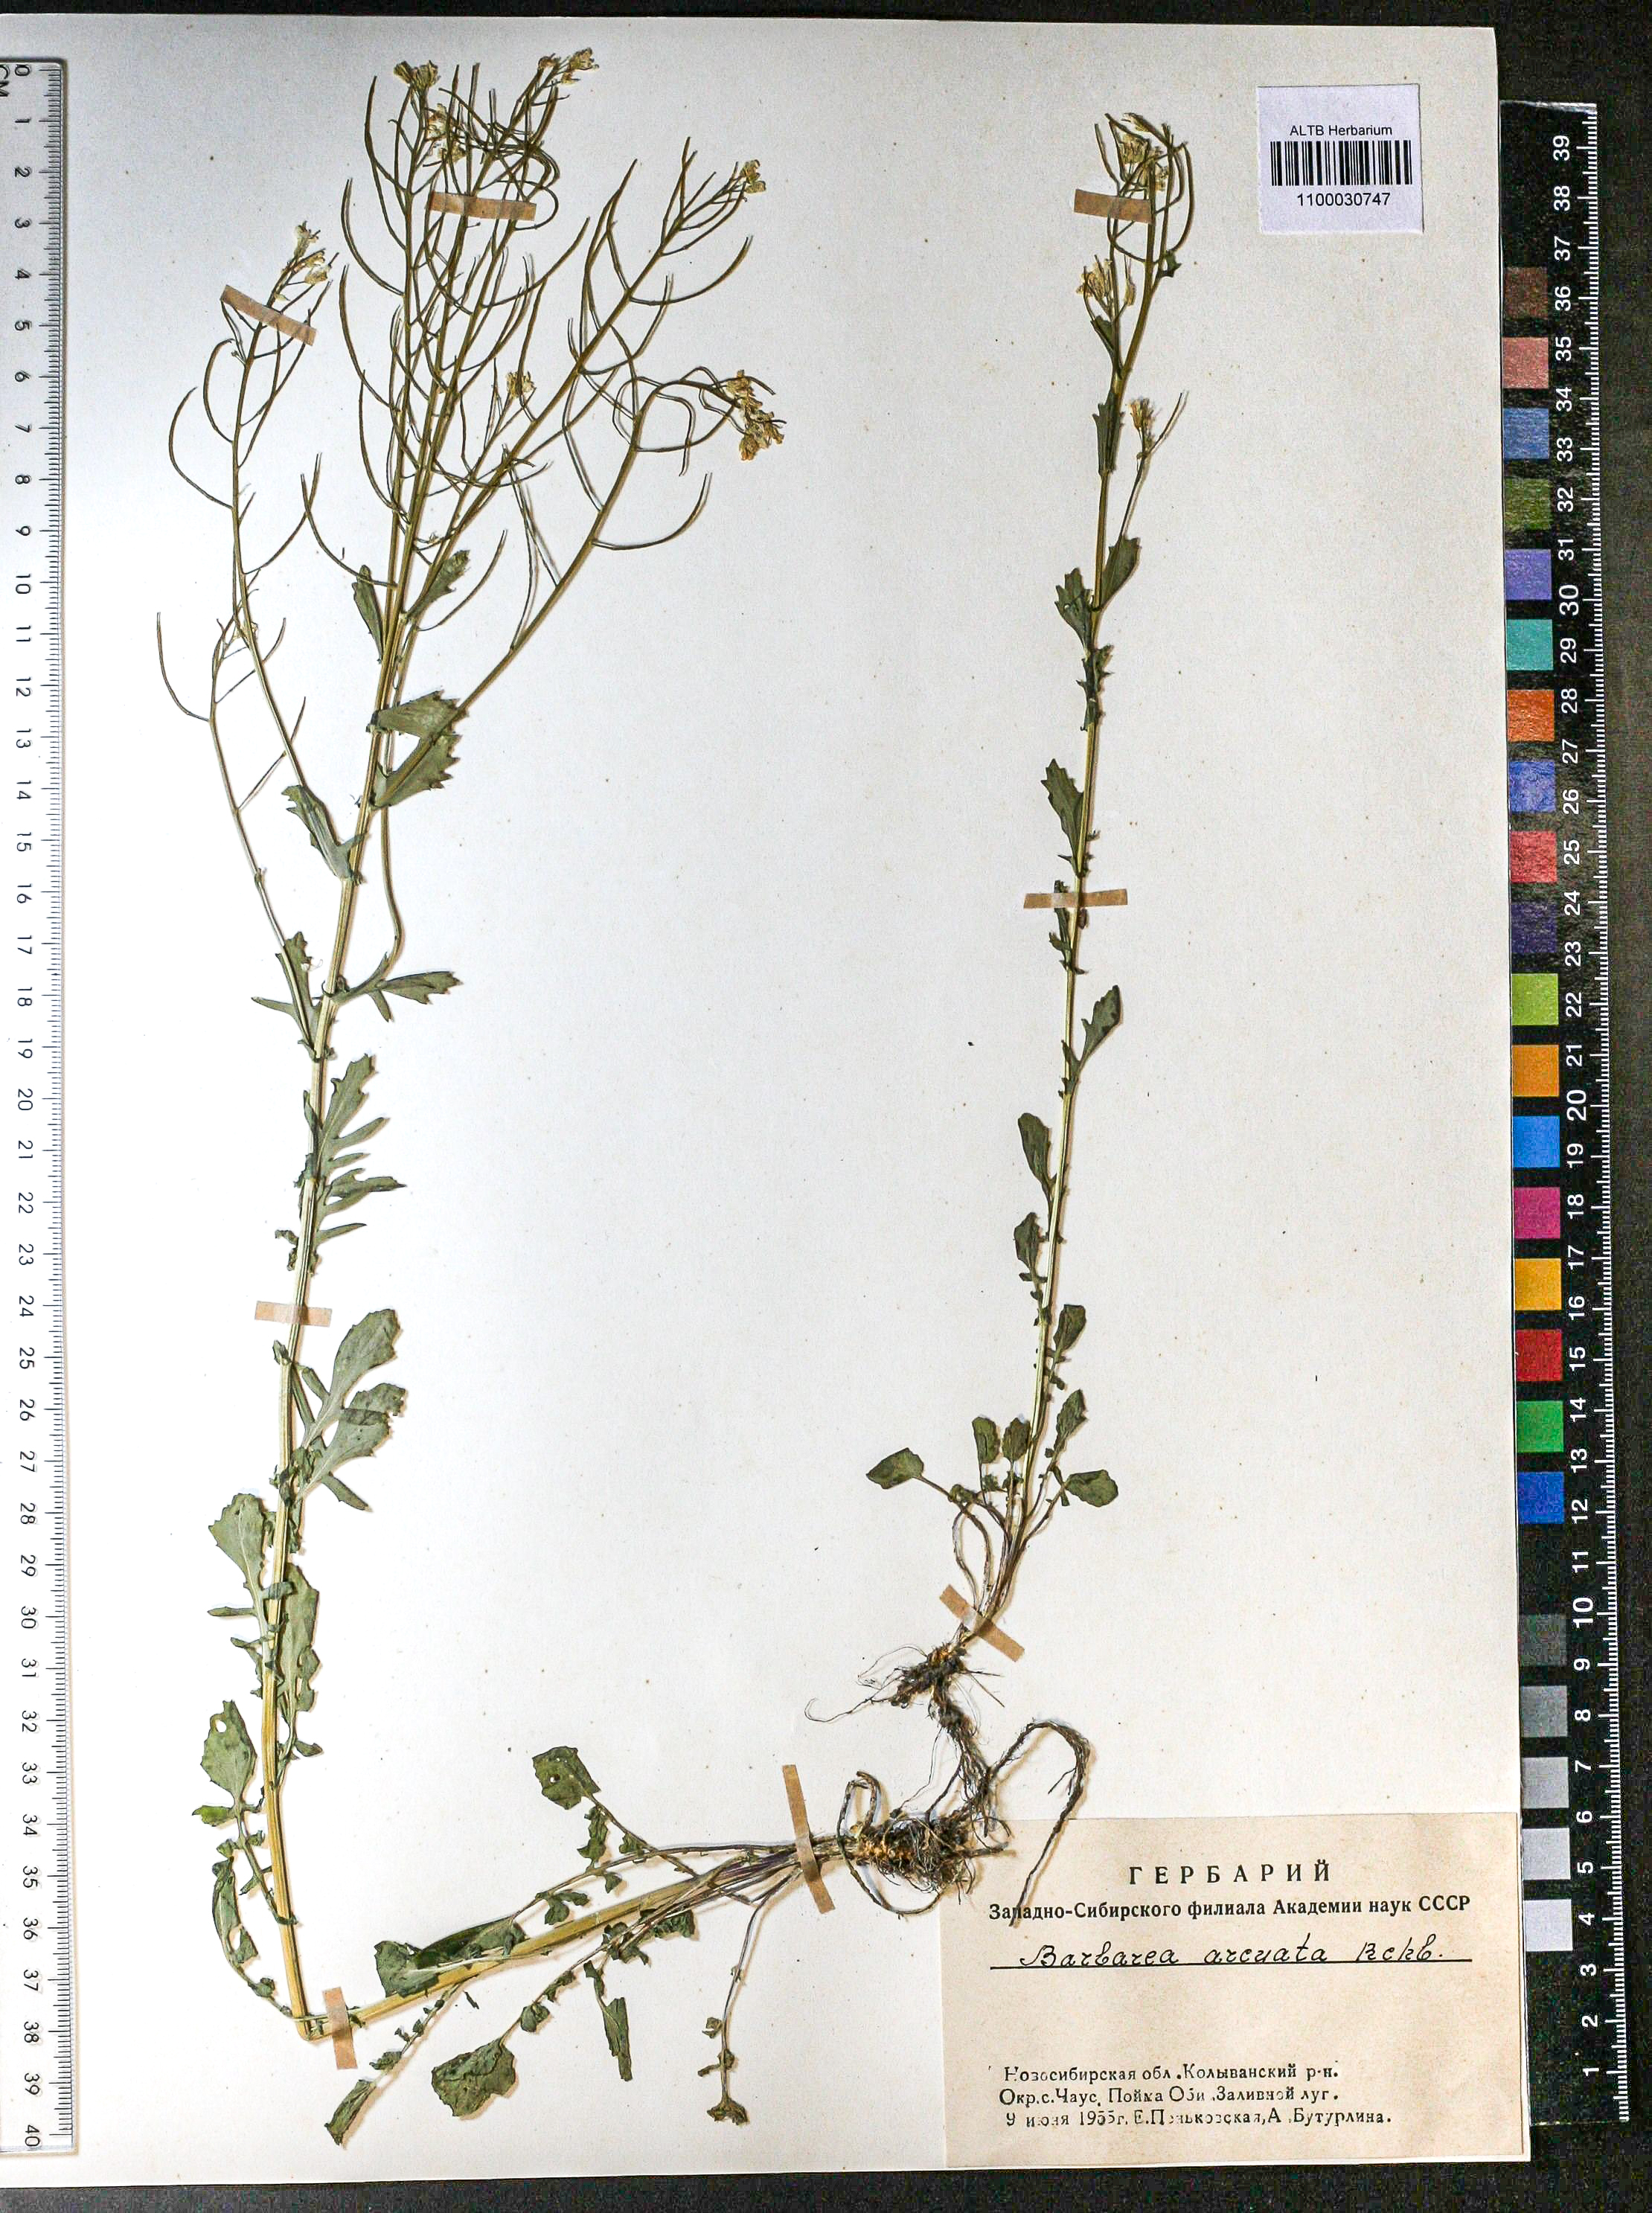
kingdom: Plantae
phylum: Tracheophyta
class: Magnoliopsida
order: Brassicales
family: Brassicaceae
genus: Barbarea
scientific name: Barbarea vulgaris
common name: Cressy-greens
